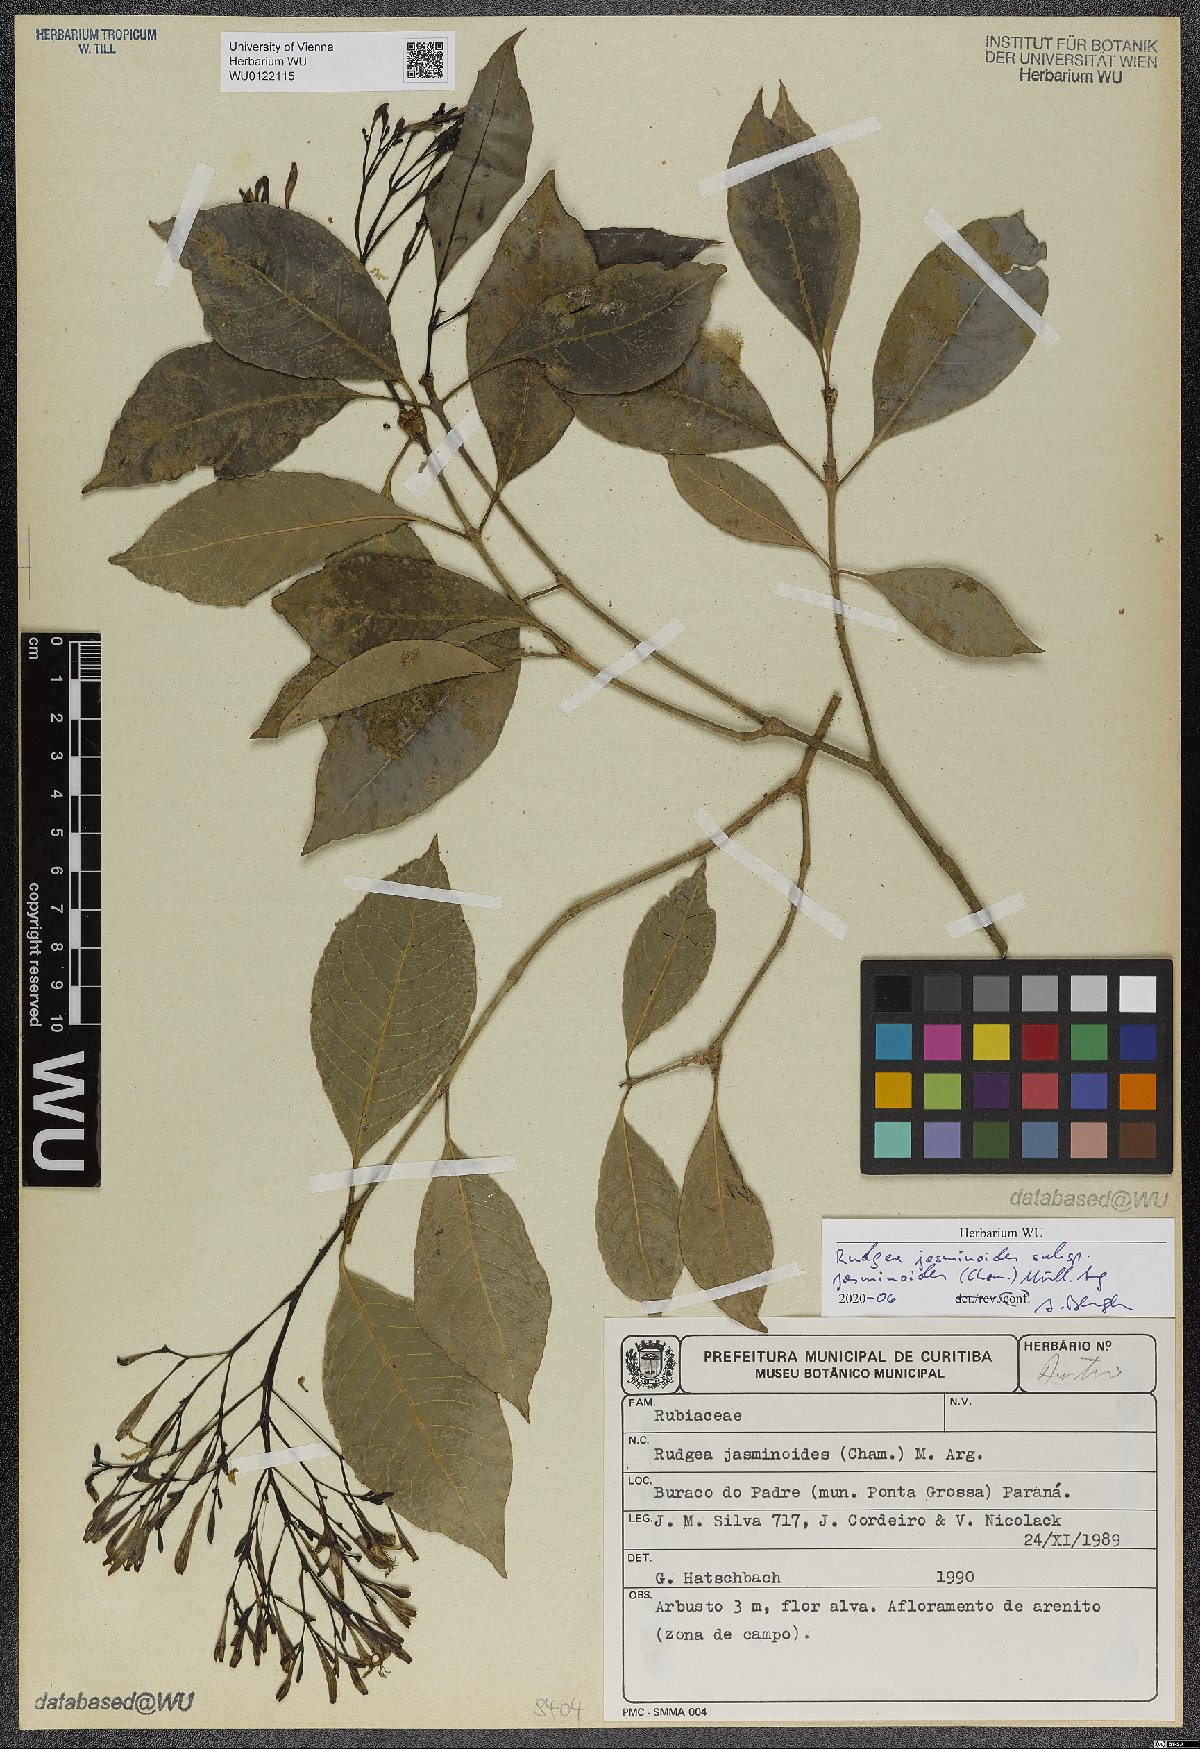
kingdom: Plantae
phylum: Tracheophyta
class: Magnoliopsida
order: Gentianales
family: Rubiaceae
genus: Rudgea
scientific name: Rudgea jasminoides
